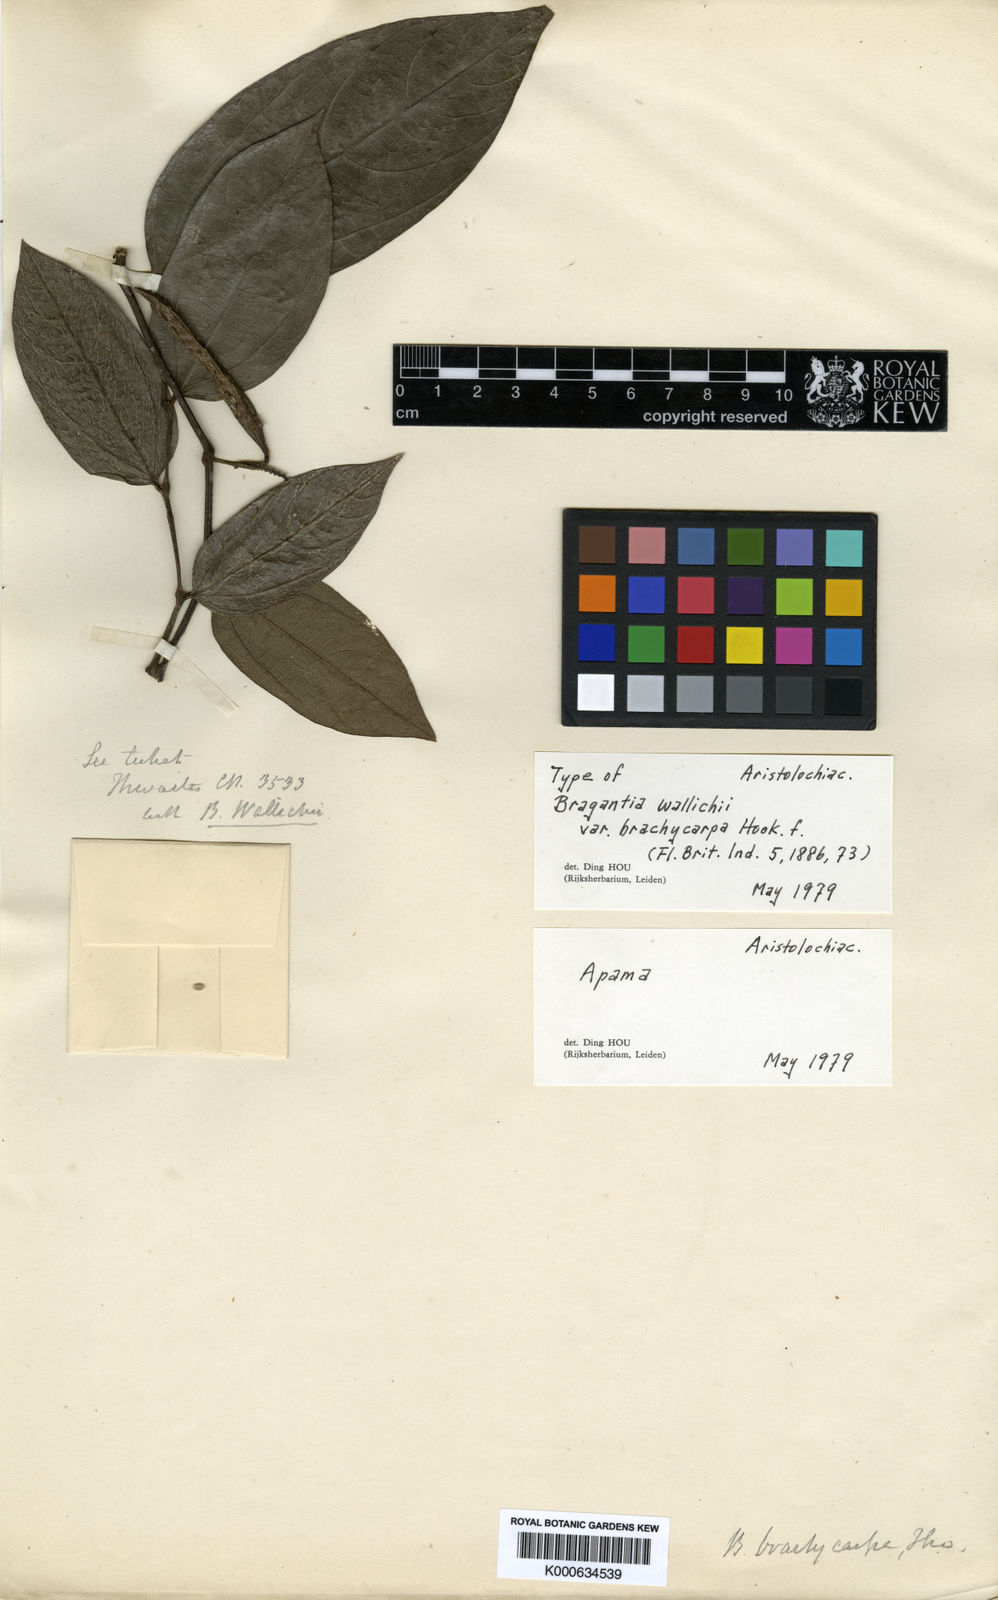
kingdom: Plantae
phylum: Tracheophyta
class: Magnoliopsida
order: Piperales
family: Aristolochiaceae
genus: Thottea
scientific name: Thottea siliquosa
